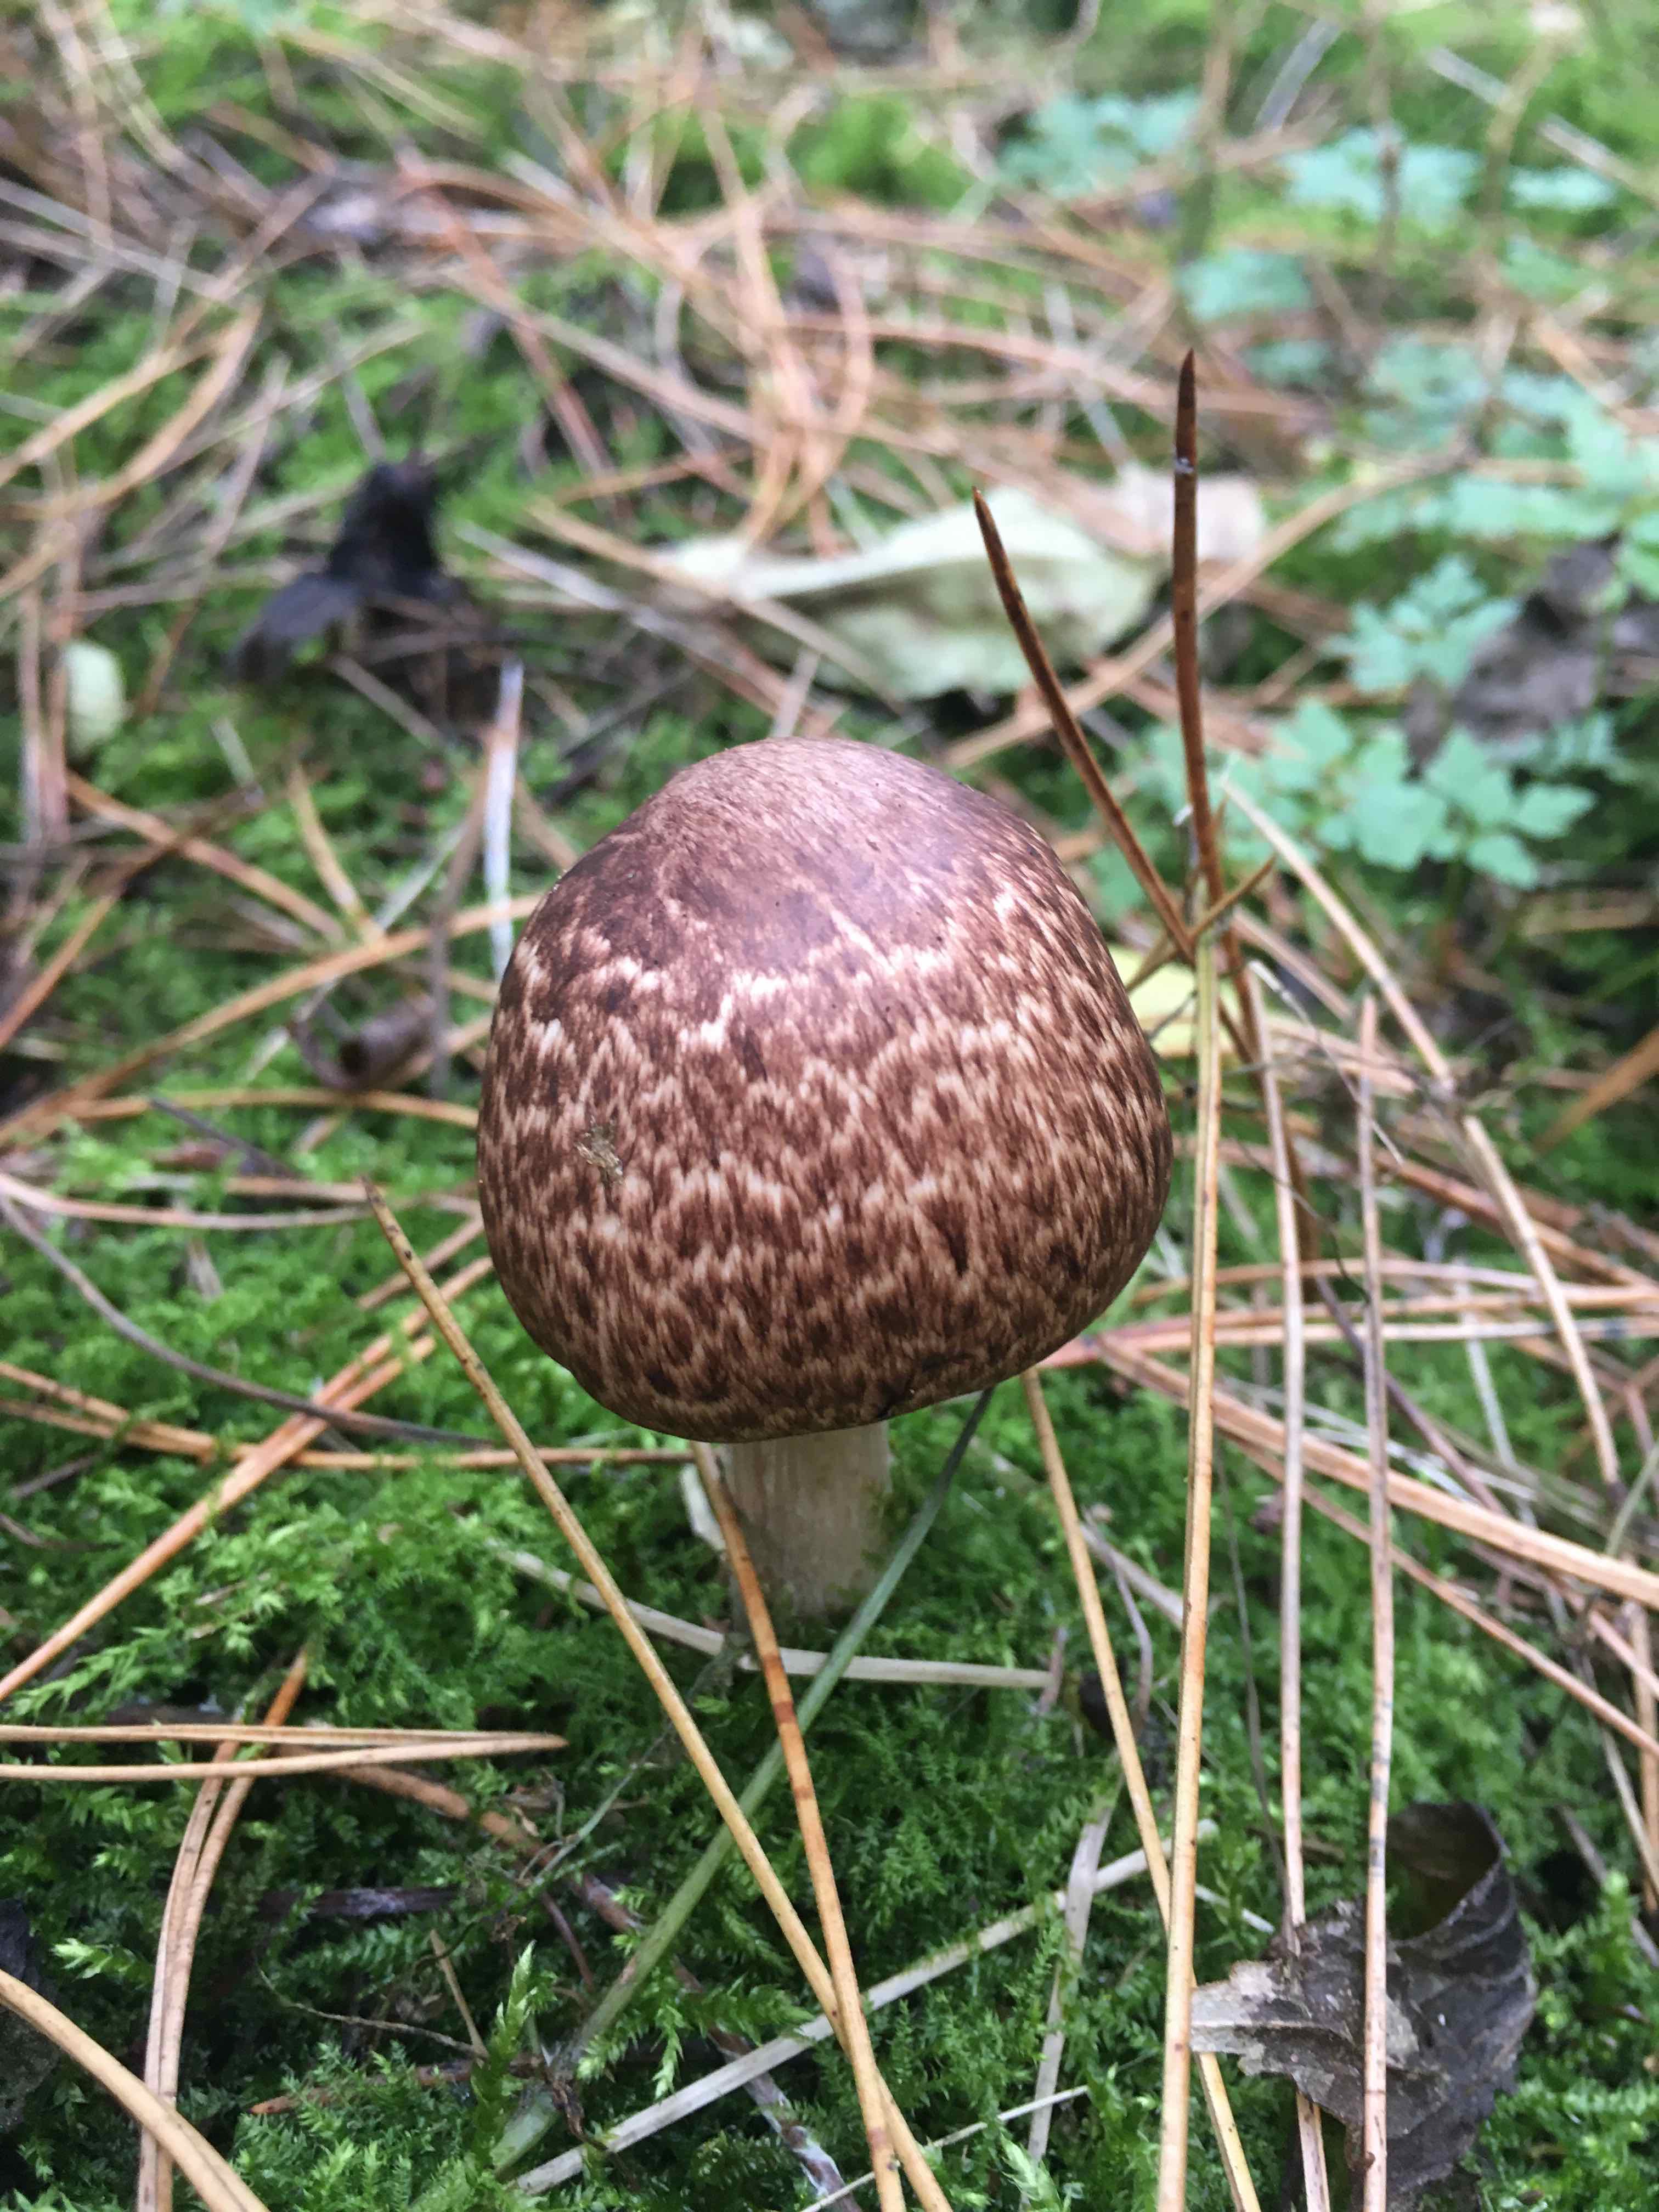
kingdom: Fungi
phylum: Basidiomycota
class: Agaricomycetes
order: Agaricales
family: Agaricaceae
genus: Agaricus
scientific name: Agaricus
